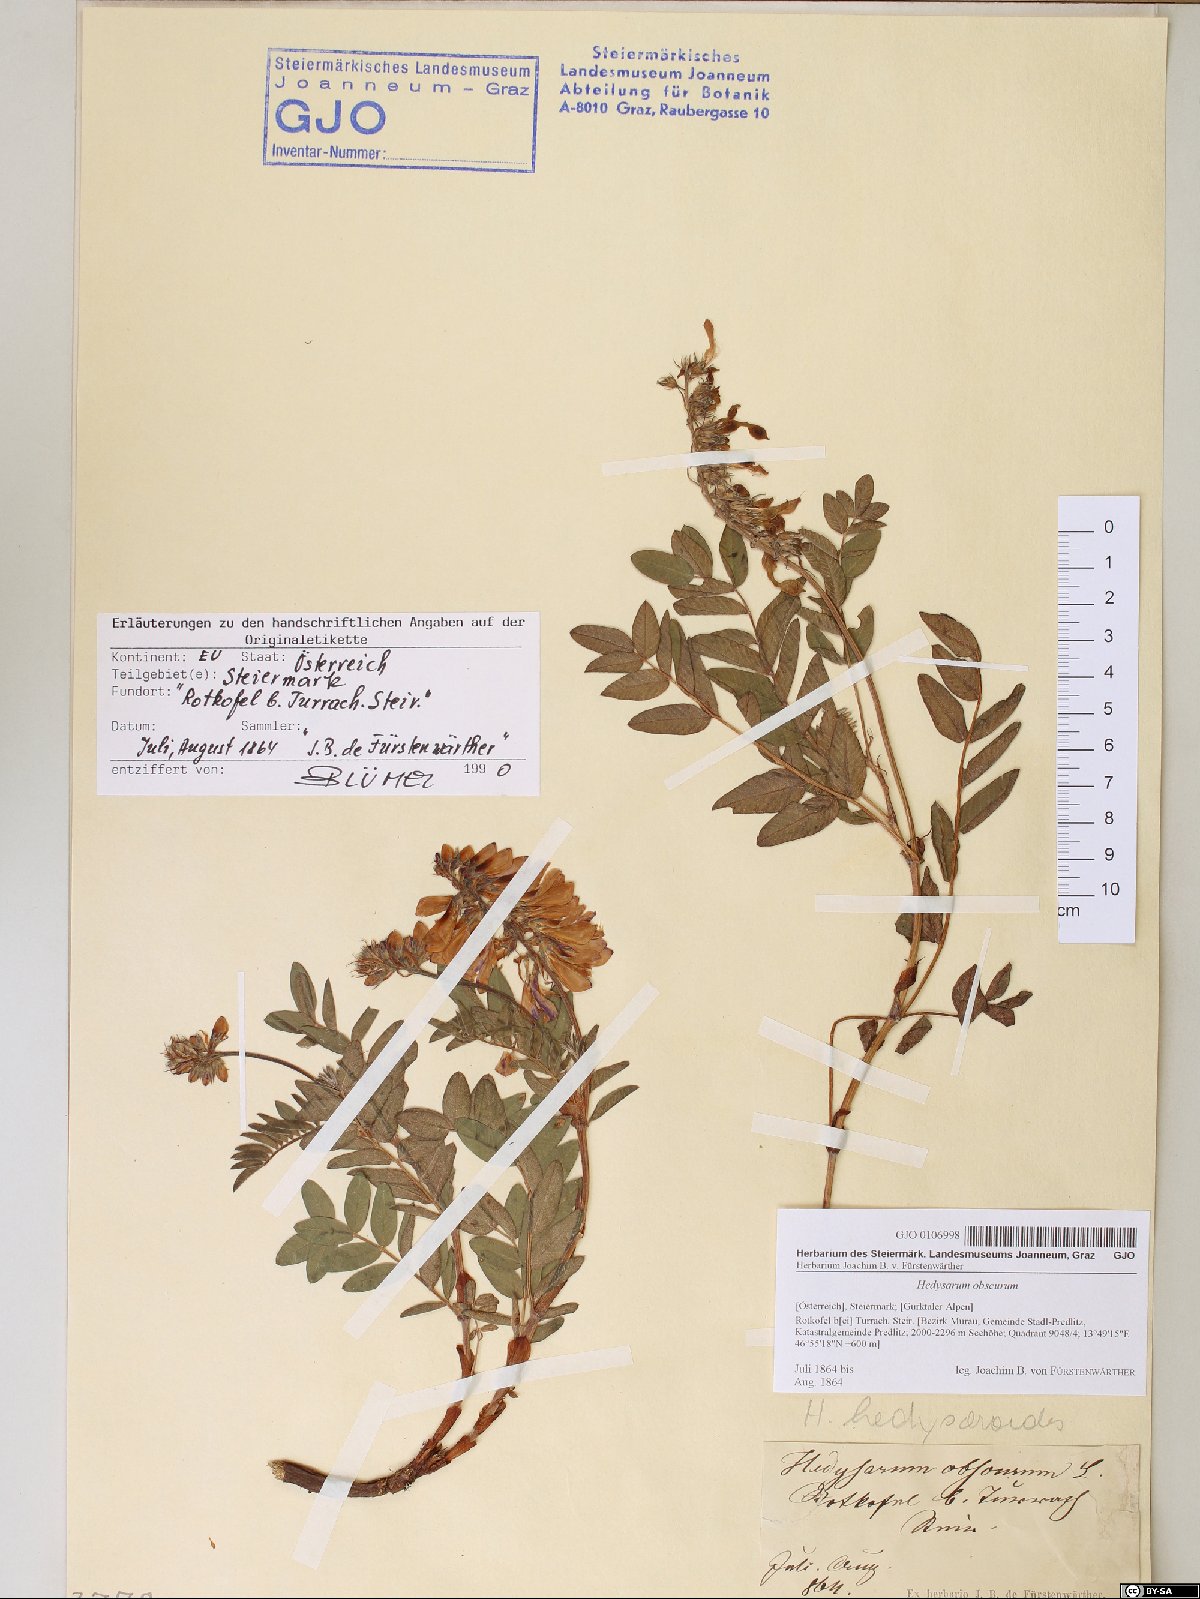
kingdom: Plantae
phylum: Tracheophyta
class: Magnoliopsida
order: Fabales
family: Fabaceae
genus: Hedysarum
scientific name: Hedysarum hedysaroides
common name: Alpine french-honeysuckle
